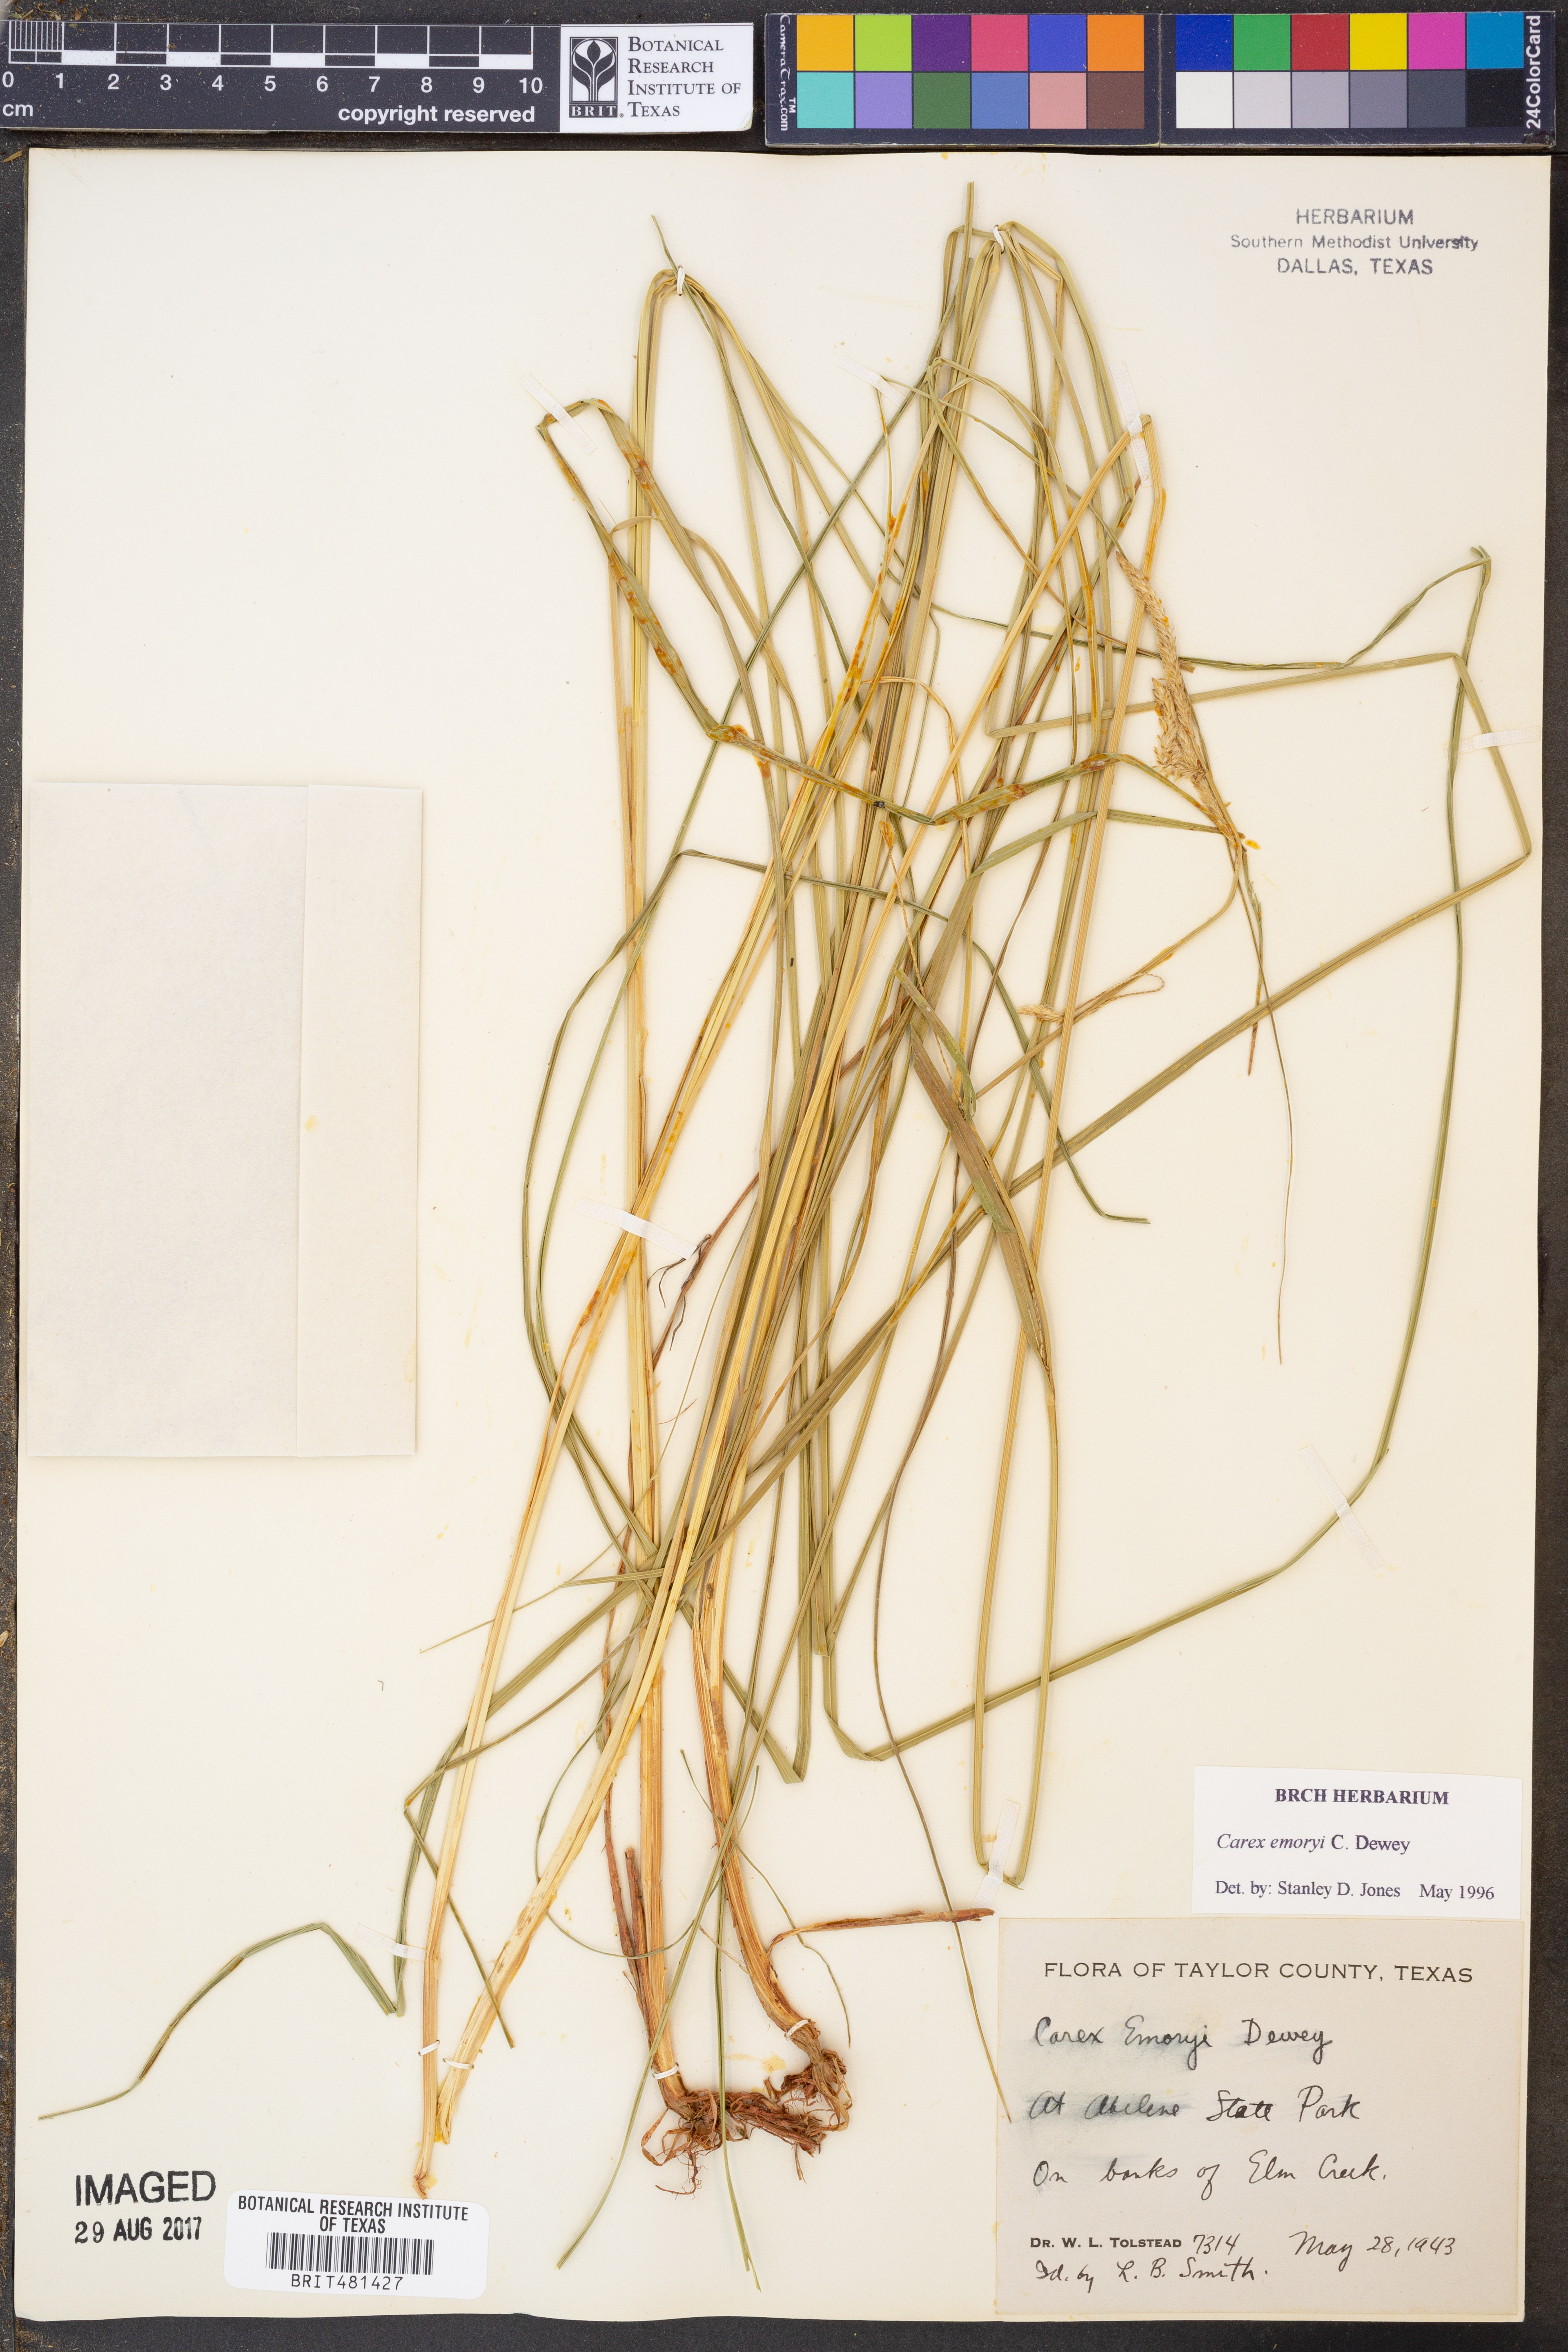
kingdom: Plantae
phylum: Tracheophyta
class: Liliopsida
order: Poales
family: Cyperaceae
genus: Carex
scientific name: Carex emoryi
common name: Emory's sedge
